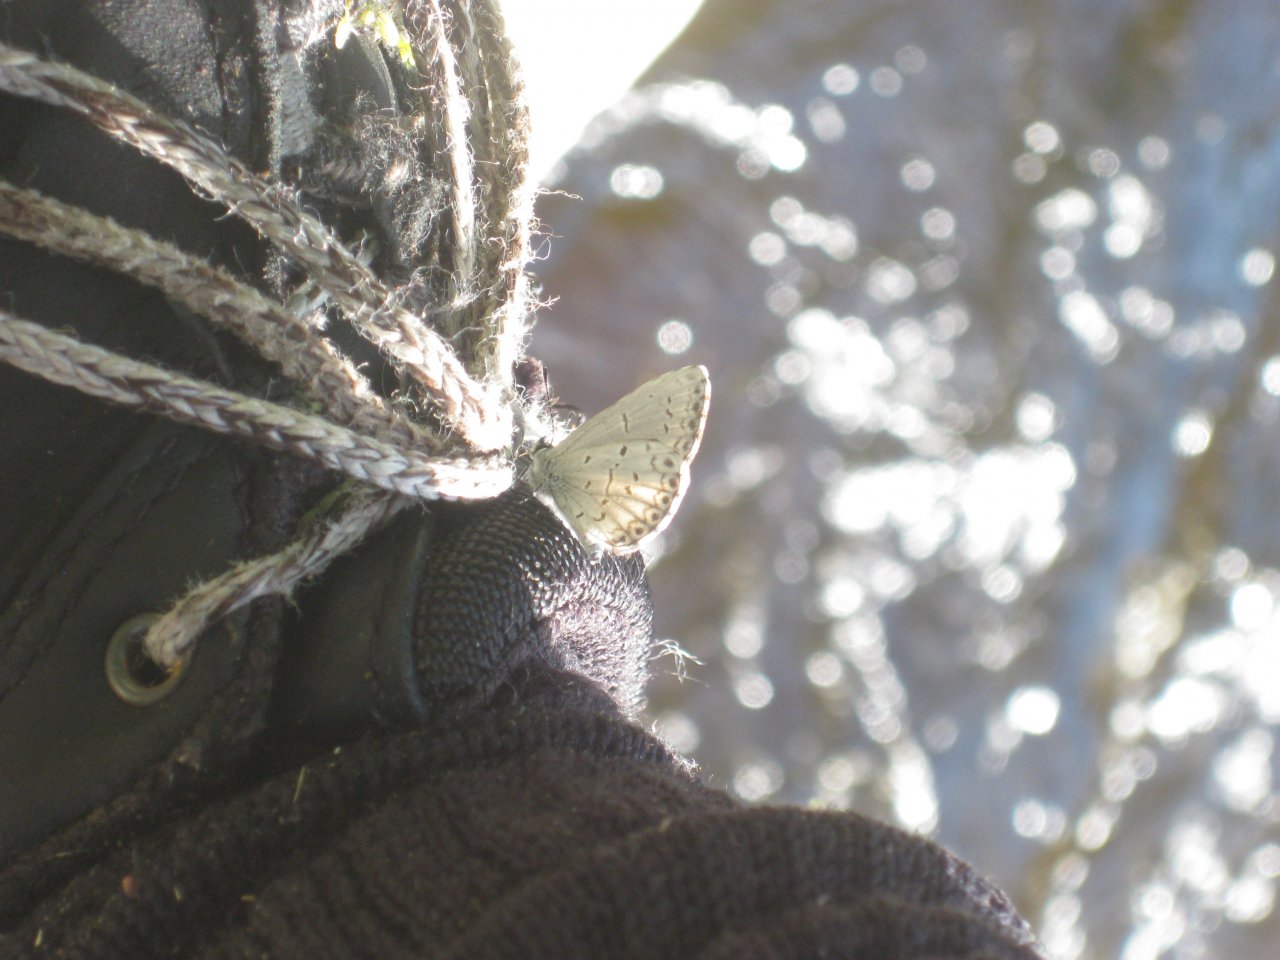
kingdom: Animalia
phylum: Arthropoda
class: Insecta
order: Lepidoptera
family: Lycaenidae
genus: Celastrina
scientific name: Celastrina ladon
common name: Spring Azure
